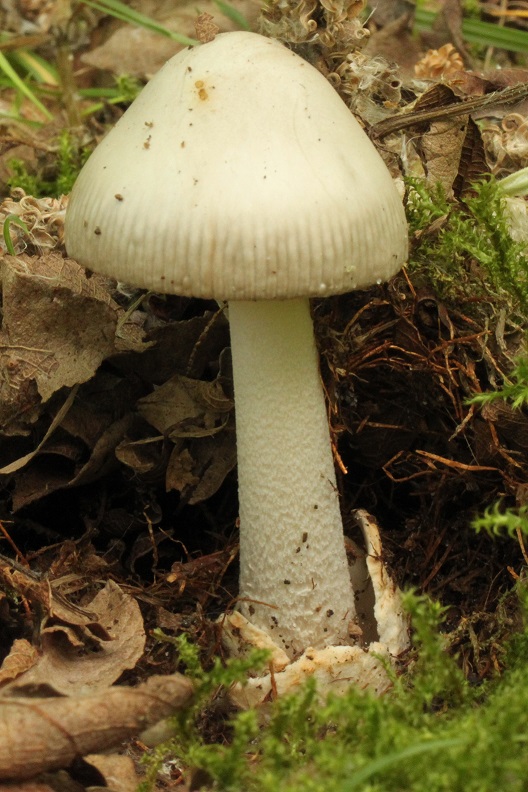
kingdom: Fungi
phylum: Basidiomycota
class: Agaricomycetes
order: Agaricales
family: Amanitaceae
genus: Amanita
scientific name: Amanita vaginata
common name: grå kam-fluesvamp
